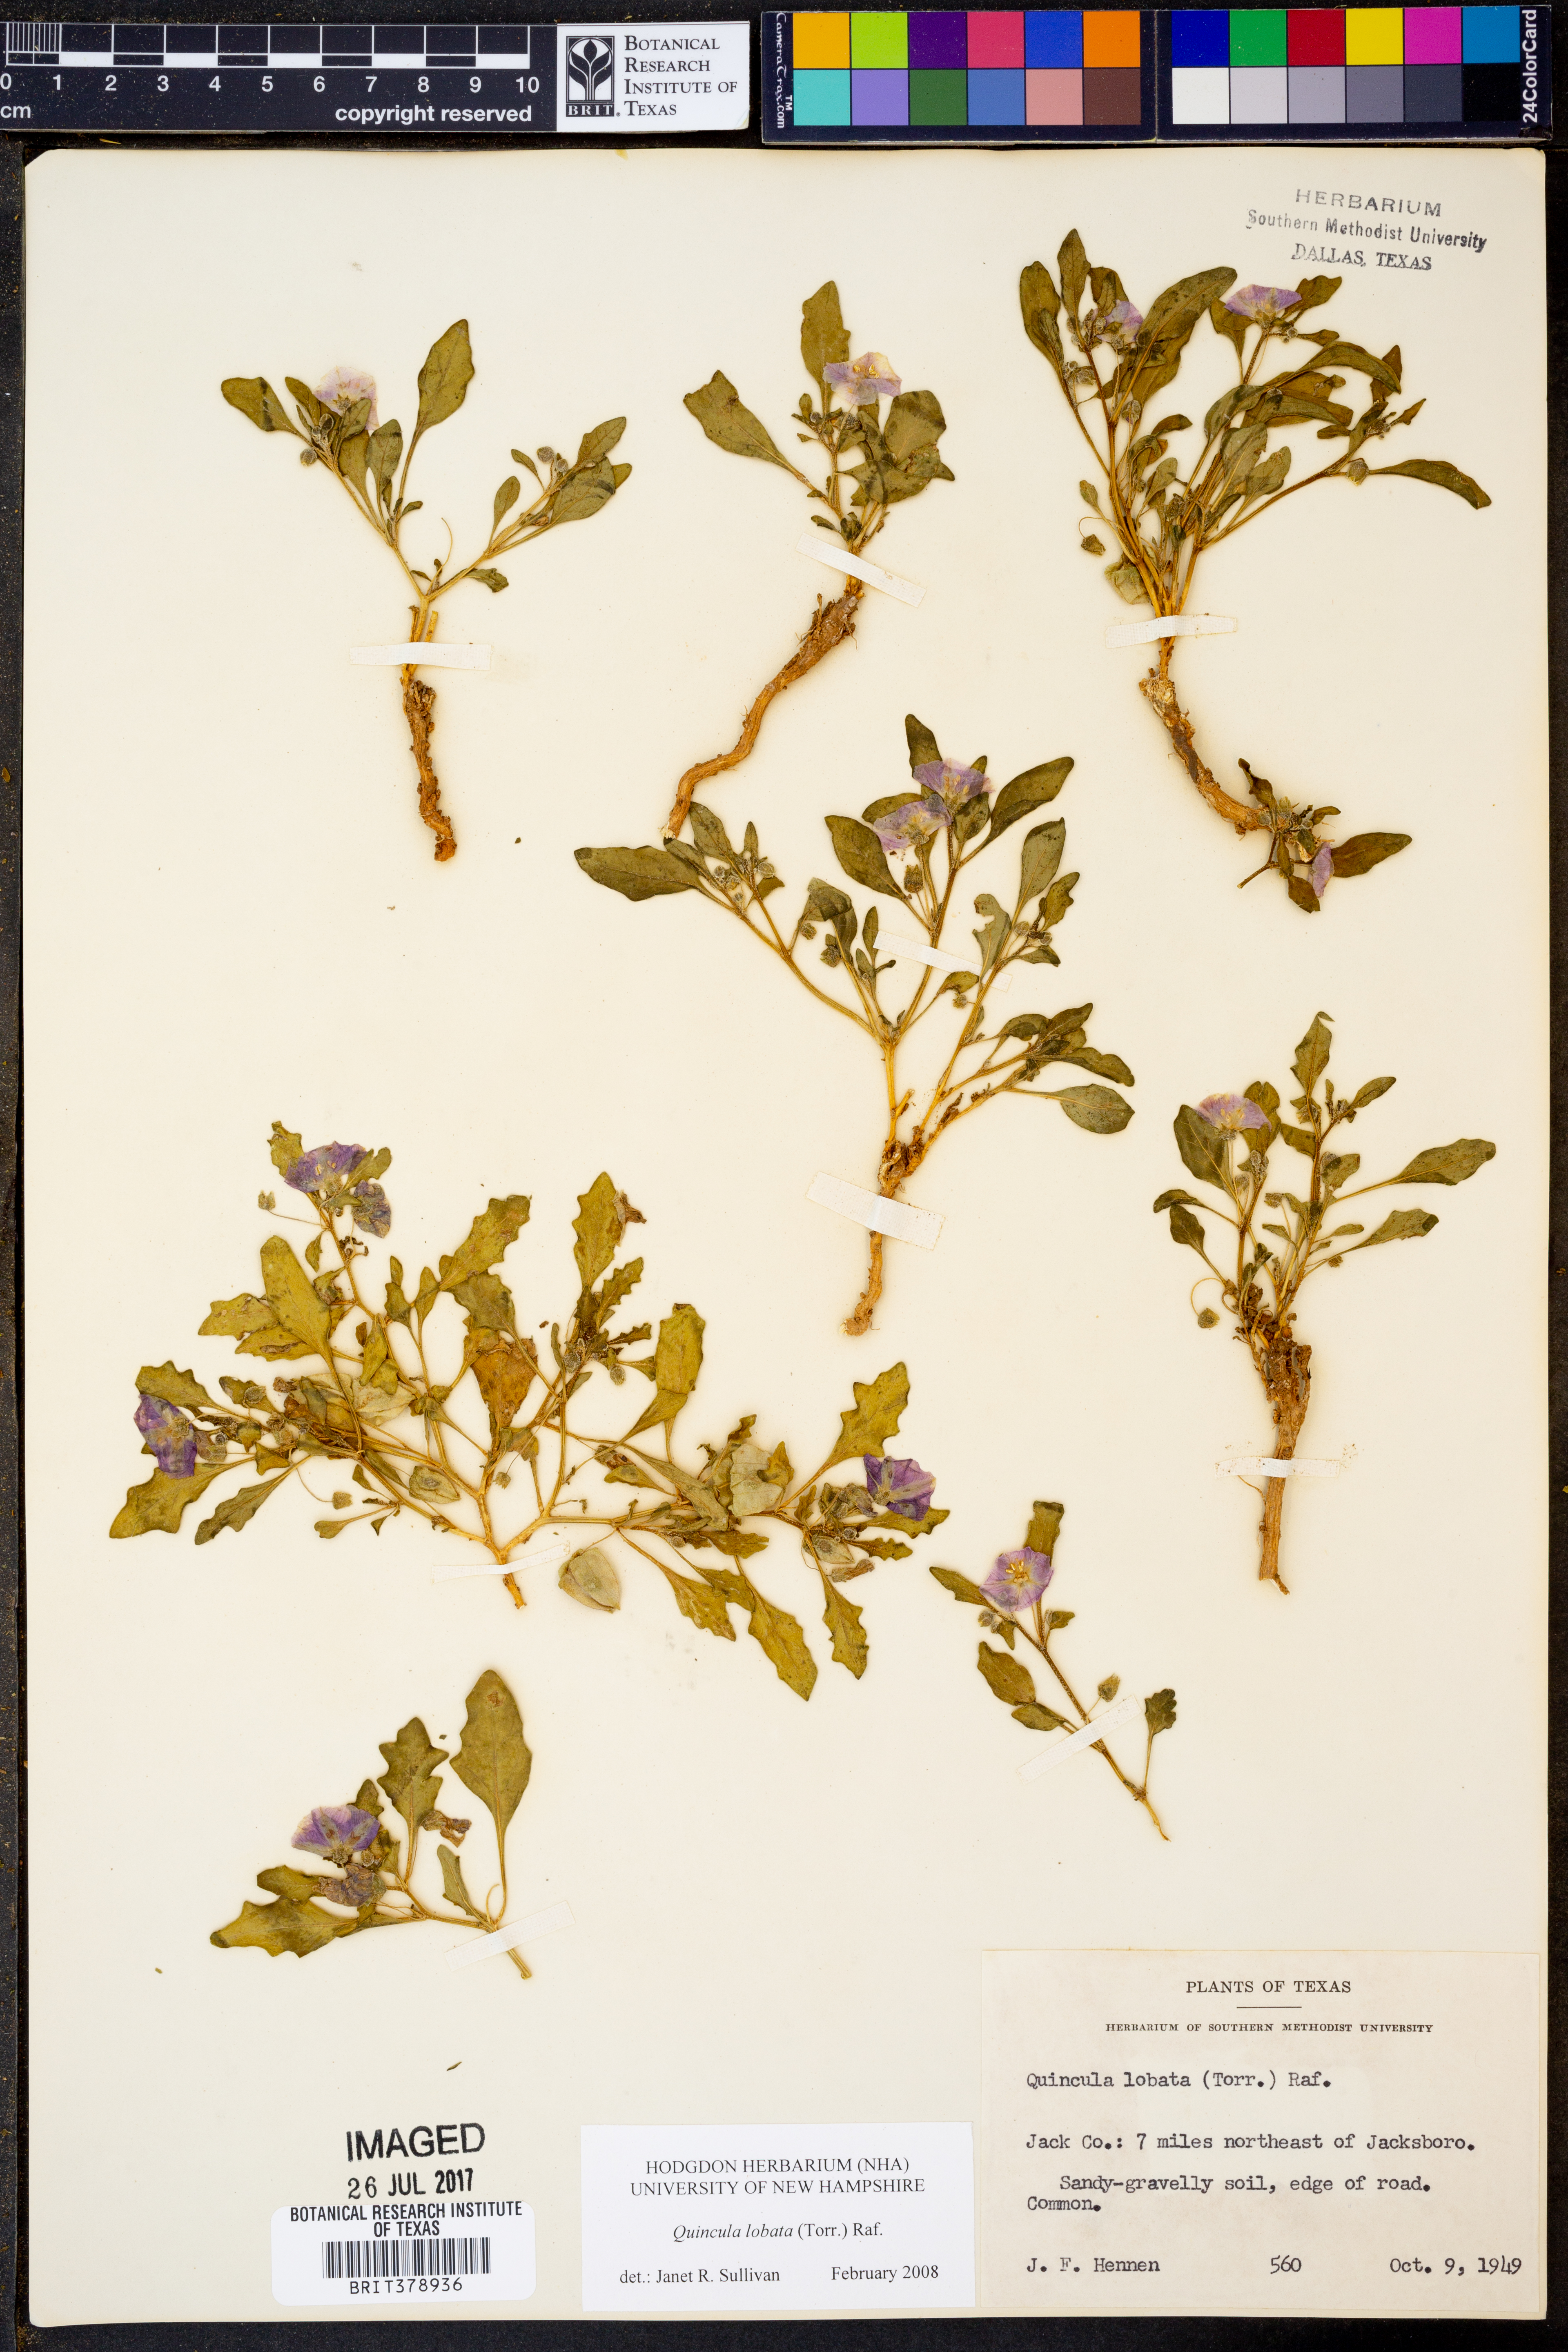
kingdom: Plantae
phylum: Tracheophyta
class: Magnoliopsida
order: Solanales
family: Solanaceae
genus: Quincula
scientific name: Quincula lobata
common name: Purple-ground-cherry
